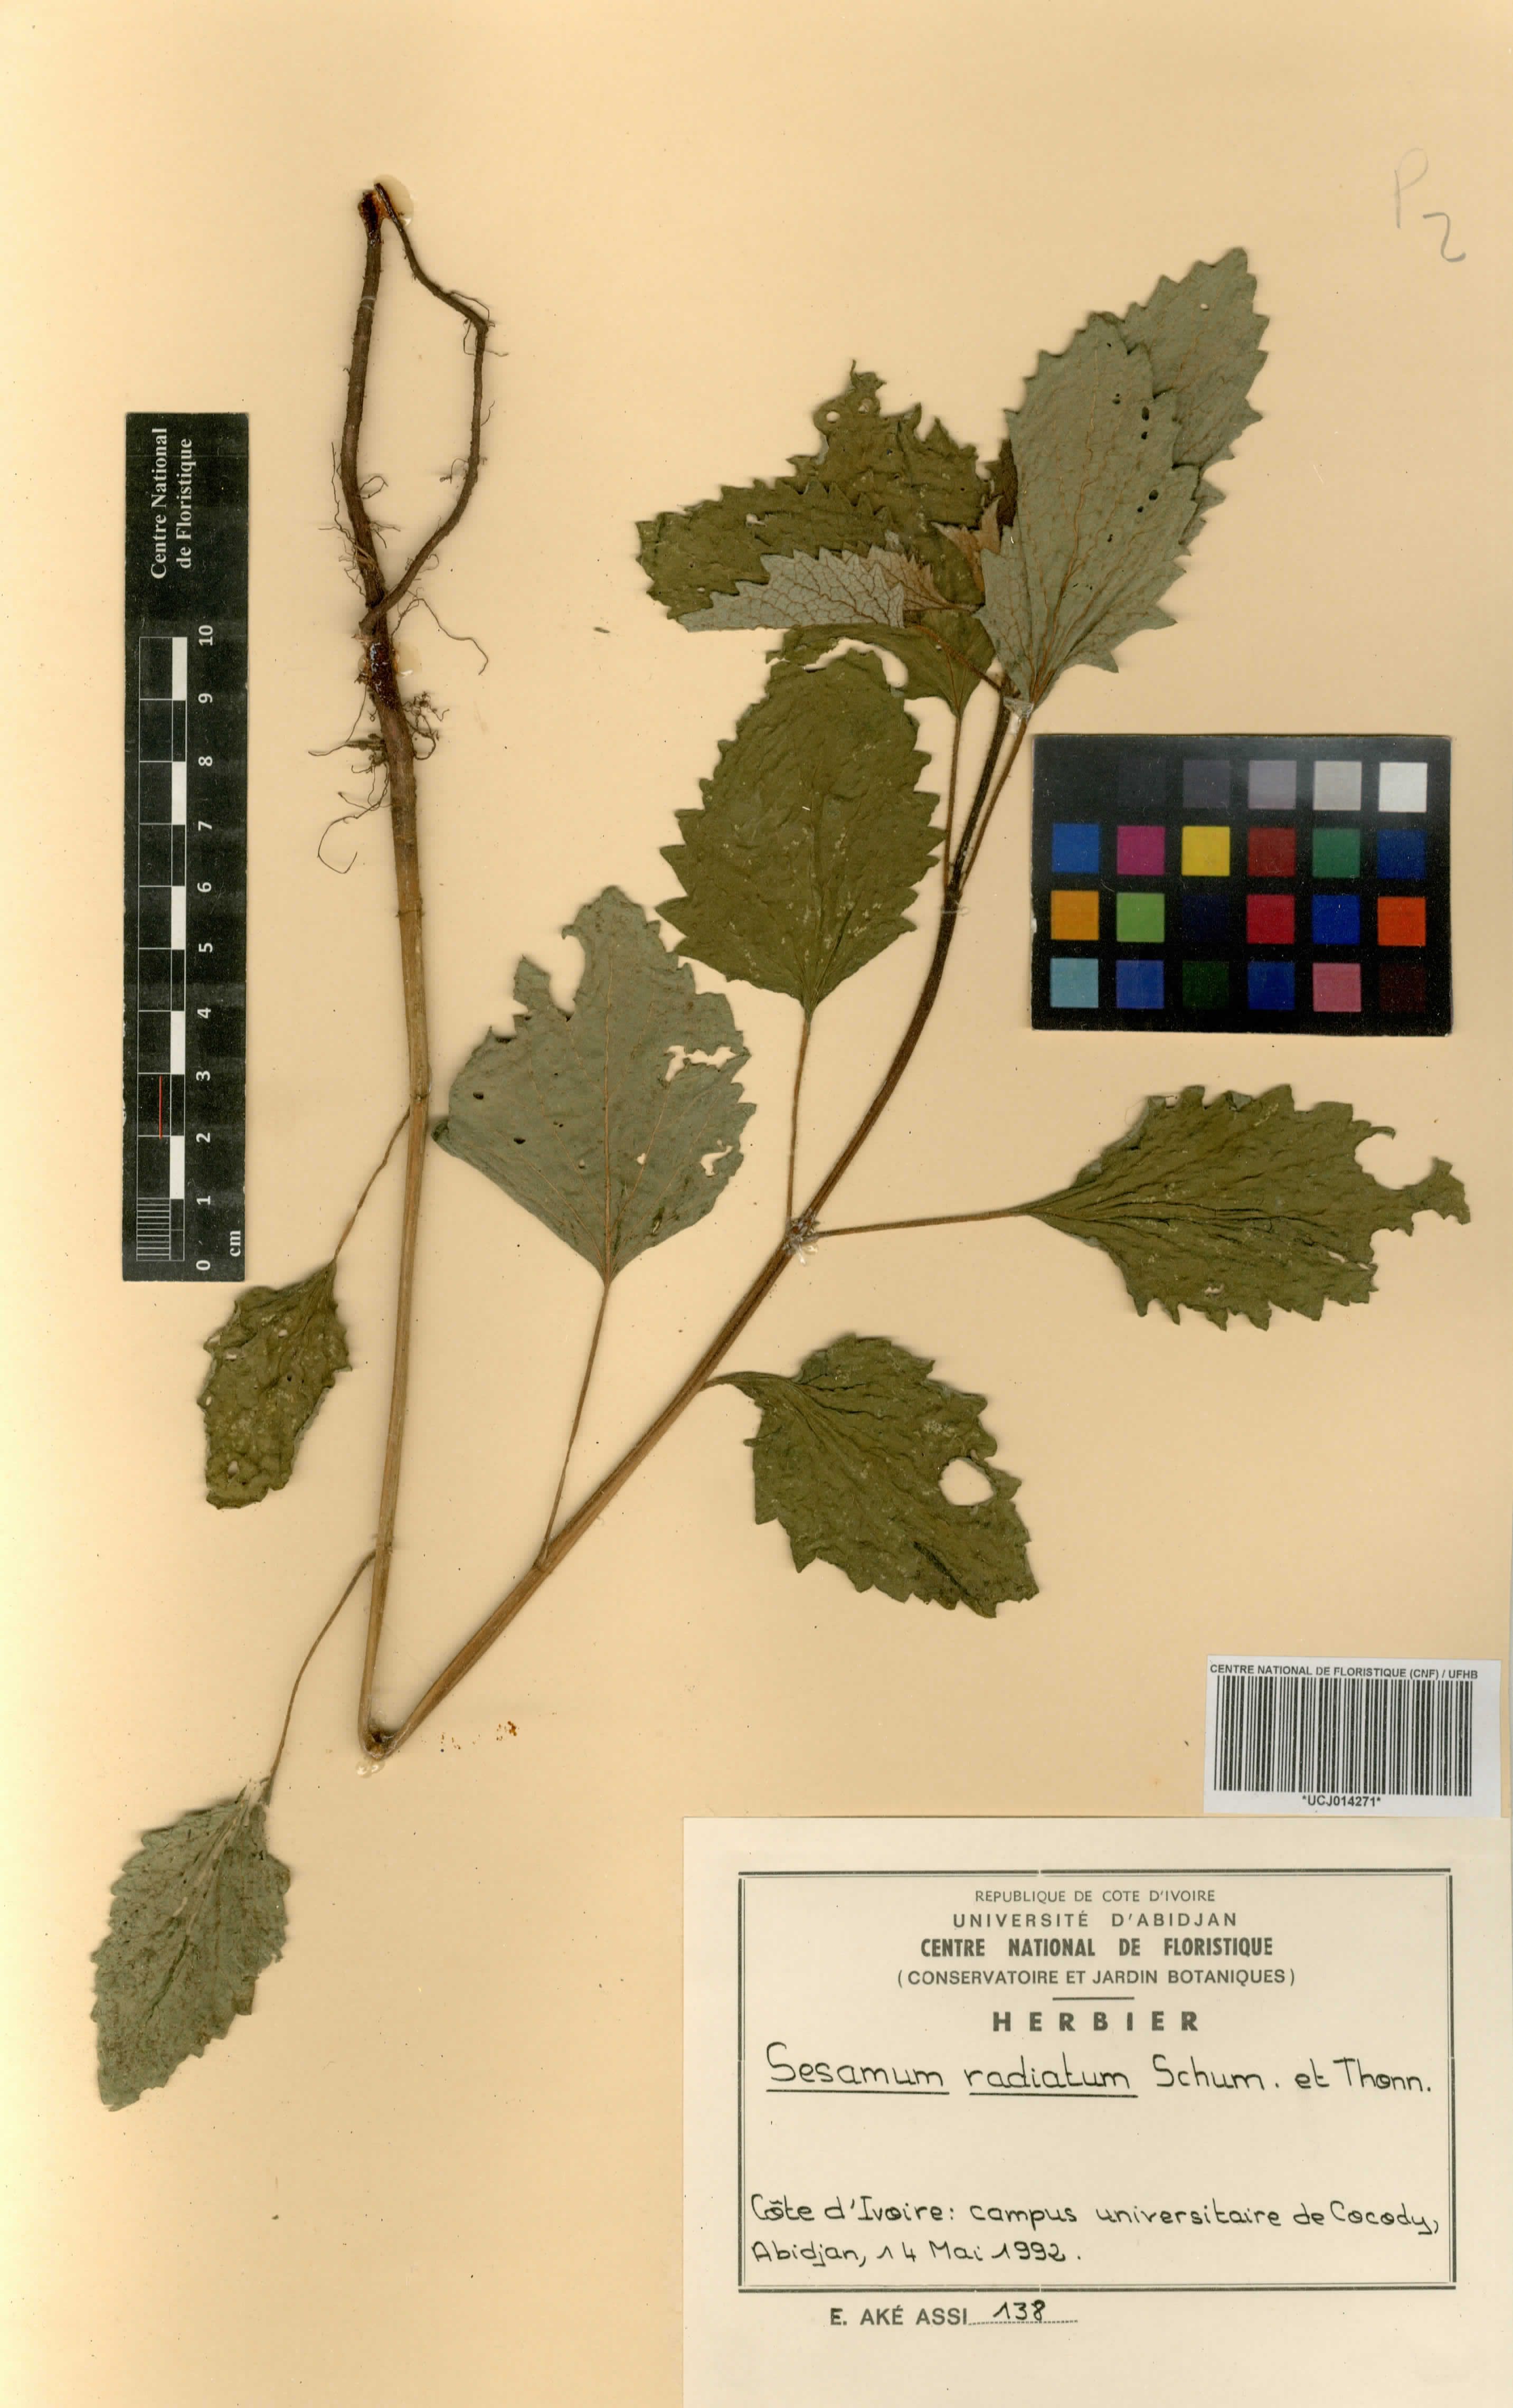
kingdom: Plantae
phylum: Tracheophyta
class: Magnoliopsida
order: Lamiales
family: Pedaliaceae
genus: Sesamum
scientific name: Sesamum radiatum
